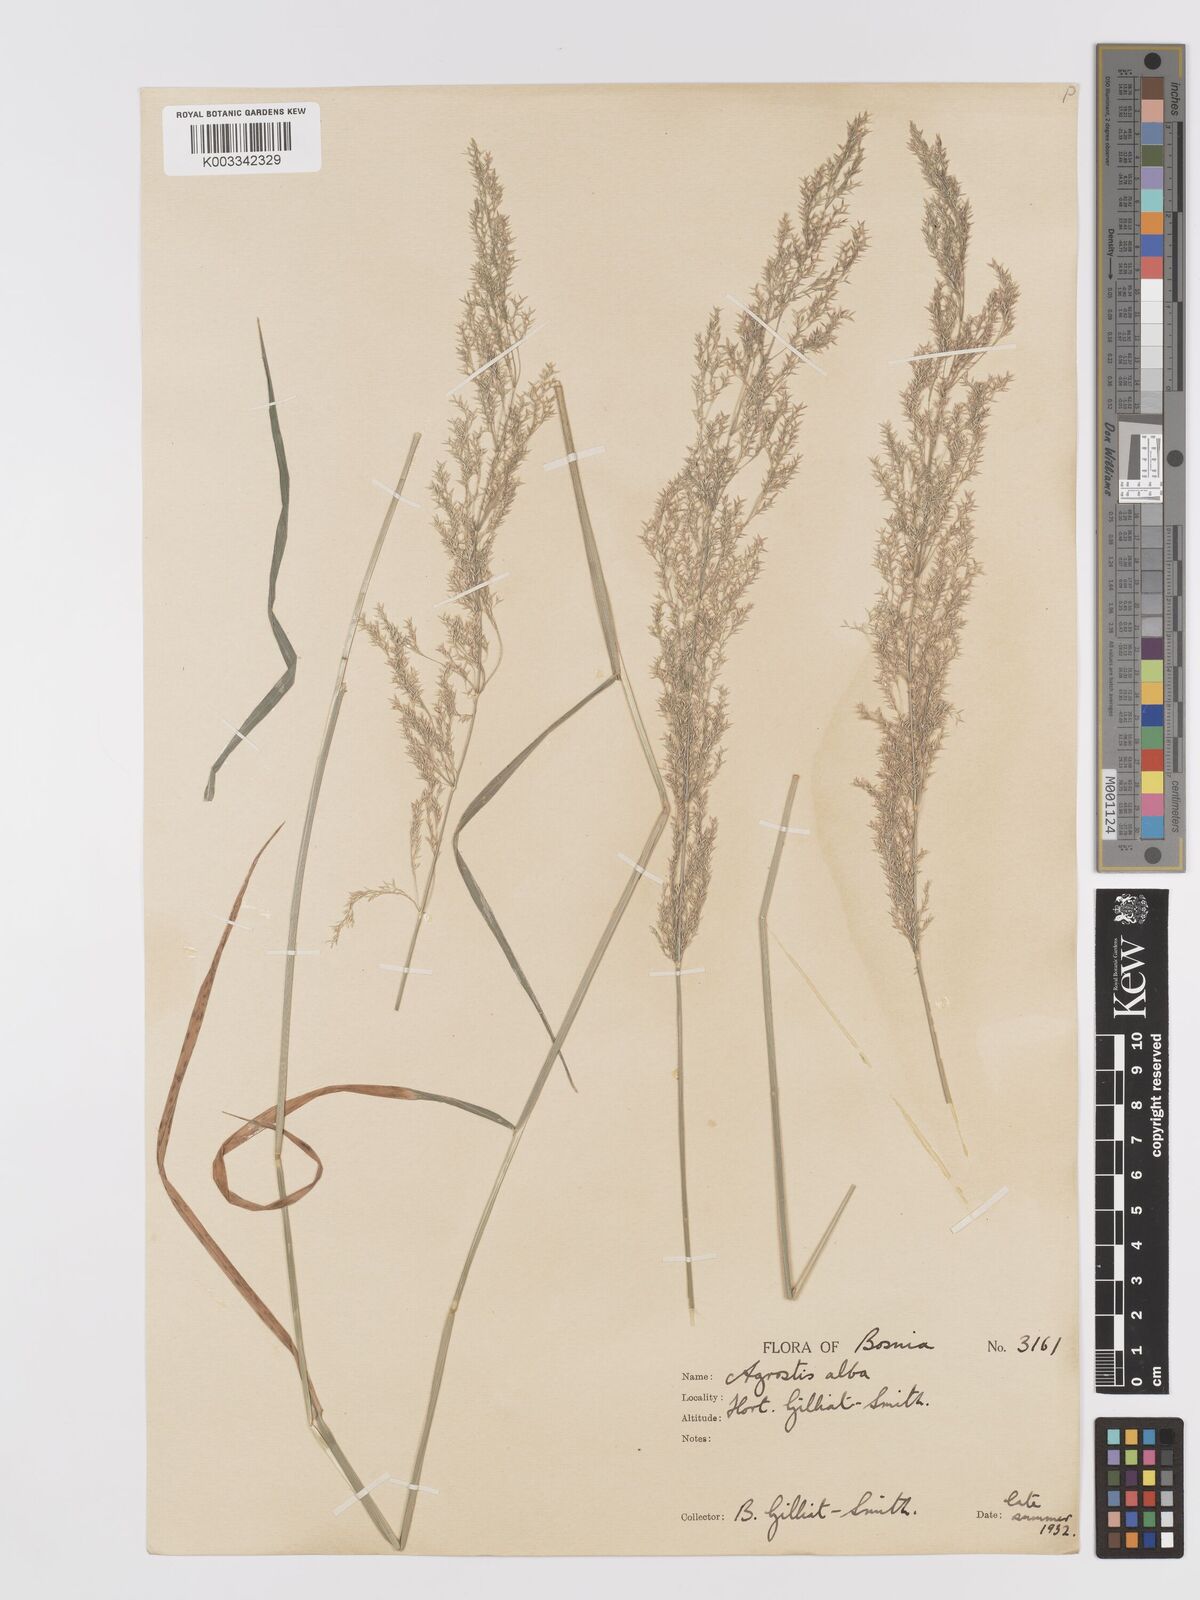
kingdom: Plantae
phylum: Tracheophyta
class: Liliopsida
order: Poales
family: Poaceae
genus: Agrostis
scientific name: Agrostis gigantea
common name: Black bent
